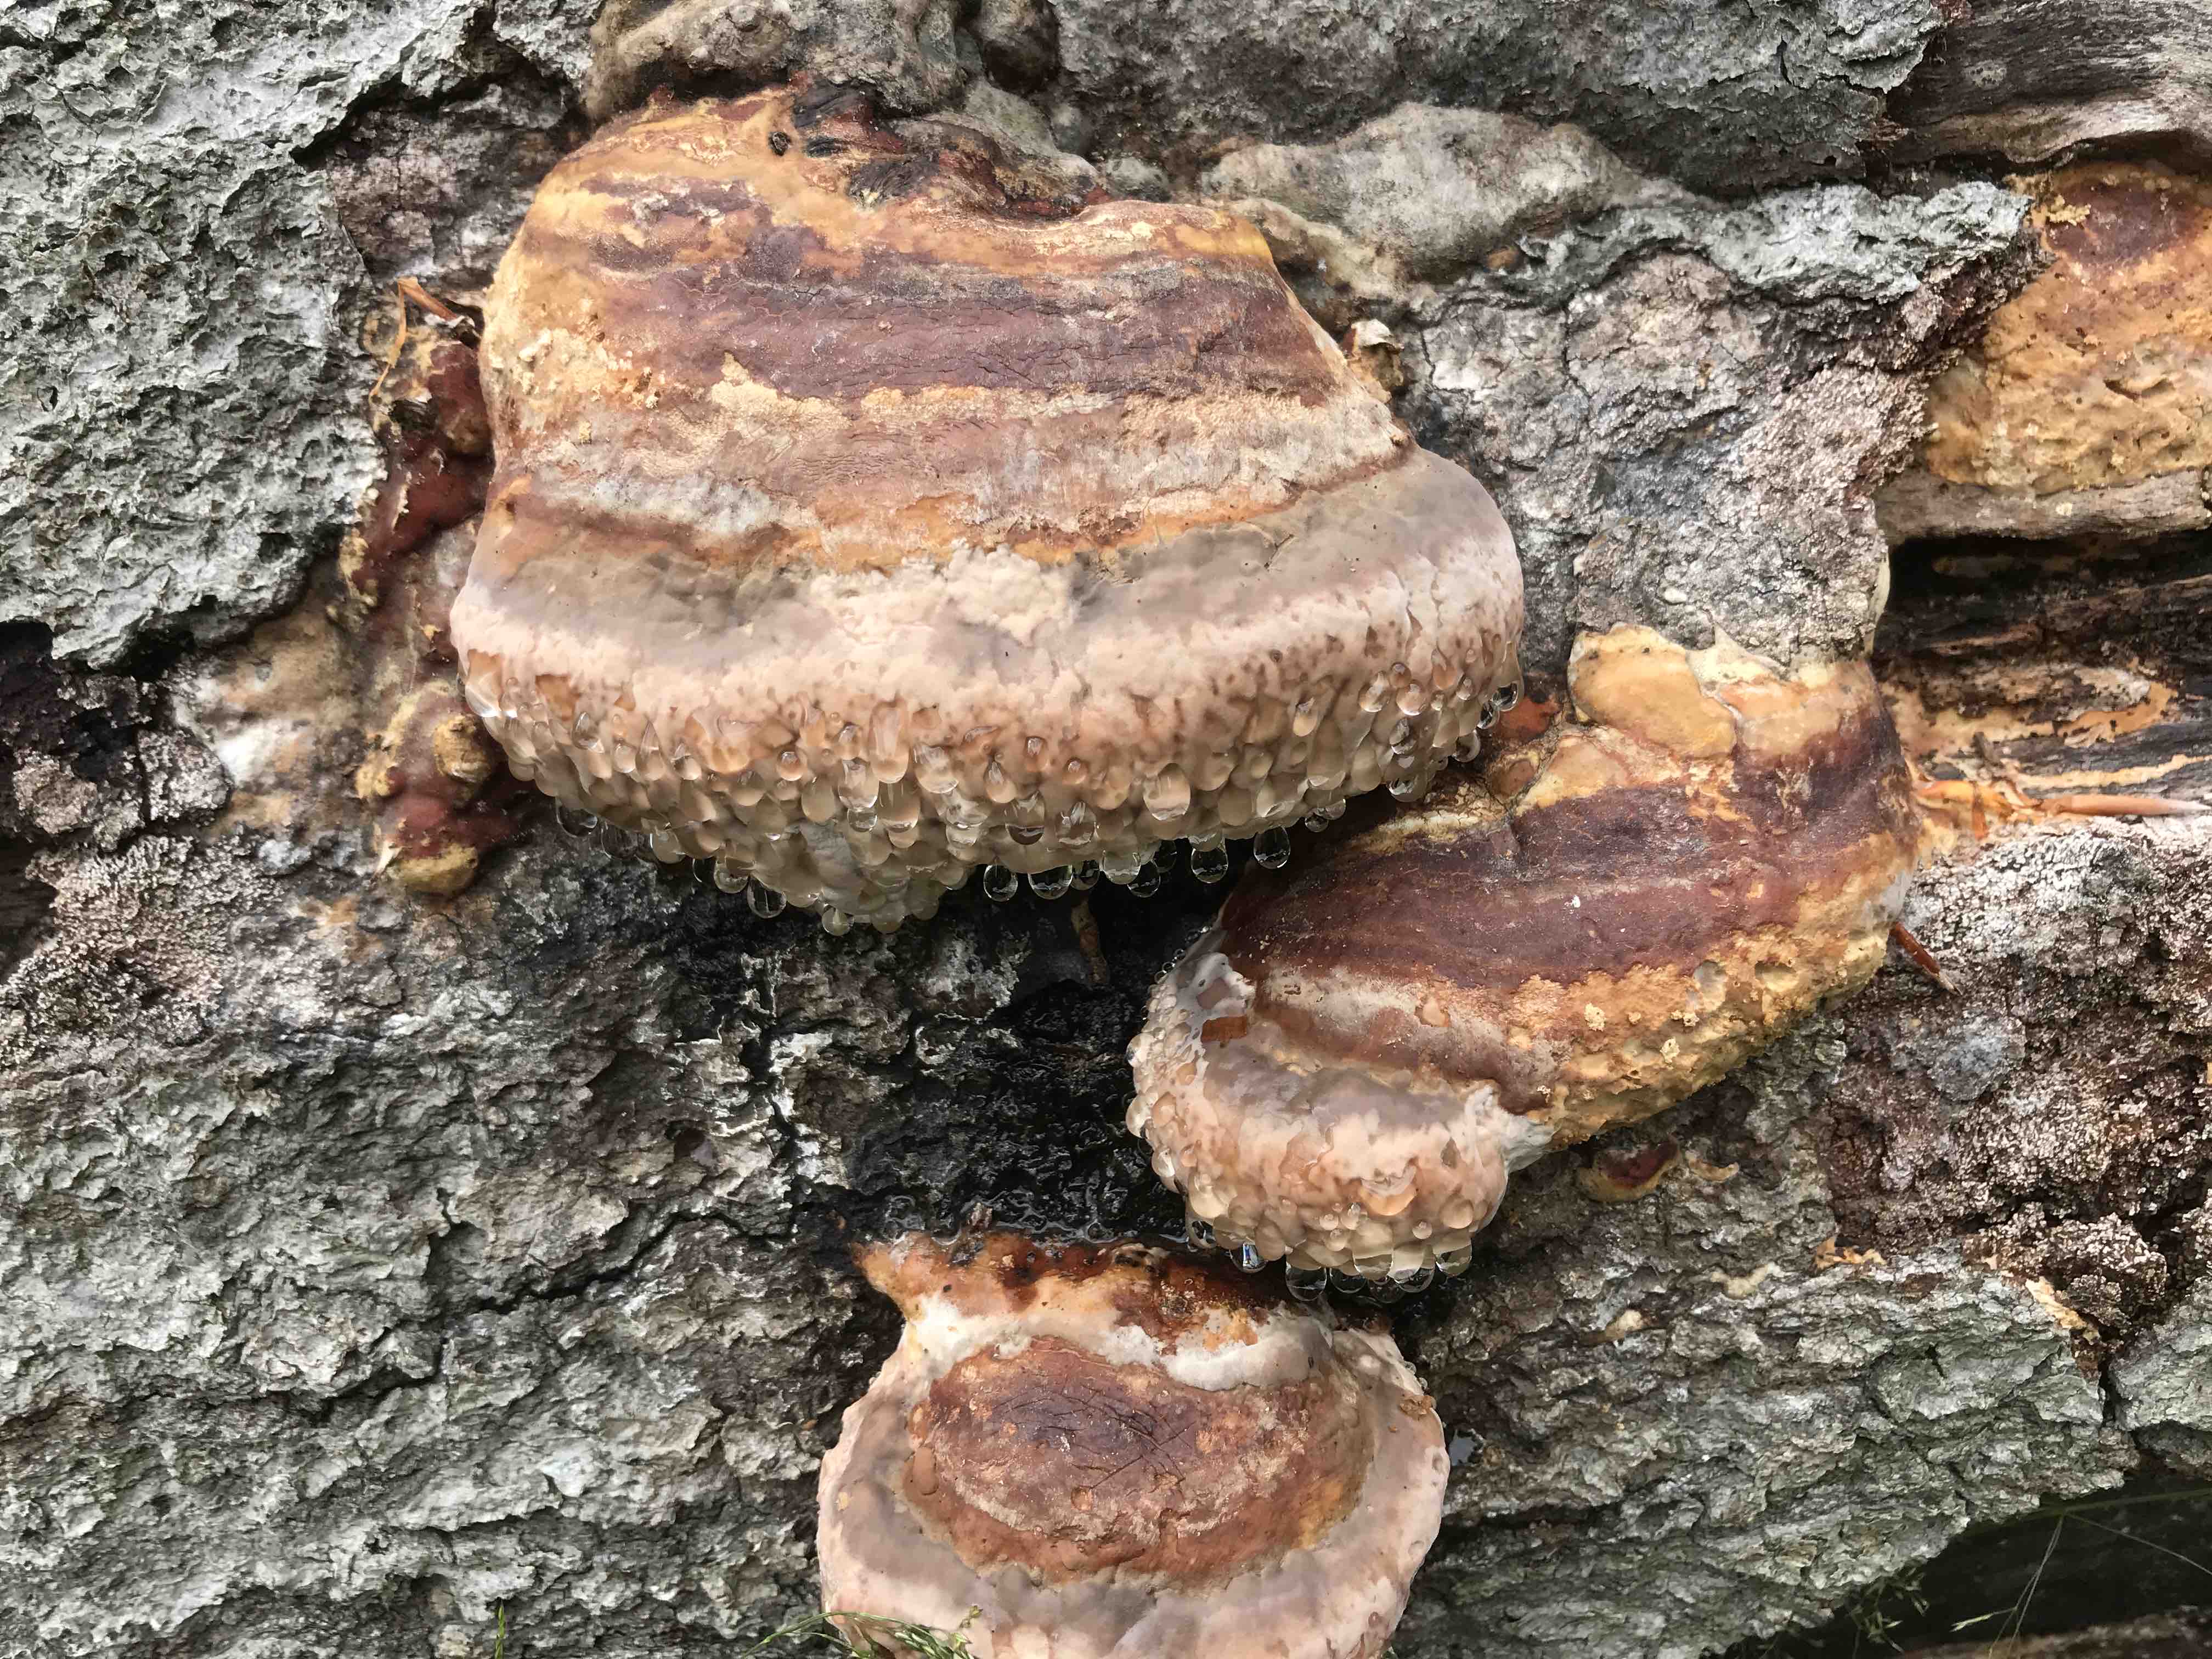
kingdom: Fungi
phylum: Basidiomycota
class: Agaricomycetes
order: Polyporales
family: Polyporaceae
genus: Fomes
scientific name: Fomes fomentarius
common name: tøndersvamp
